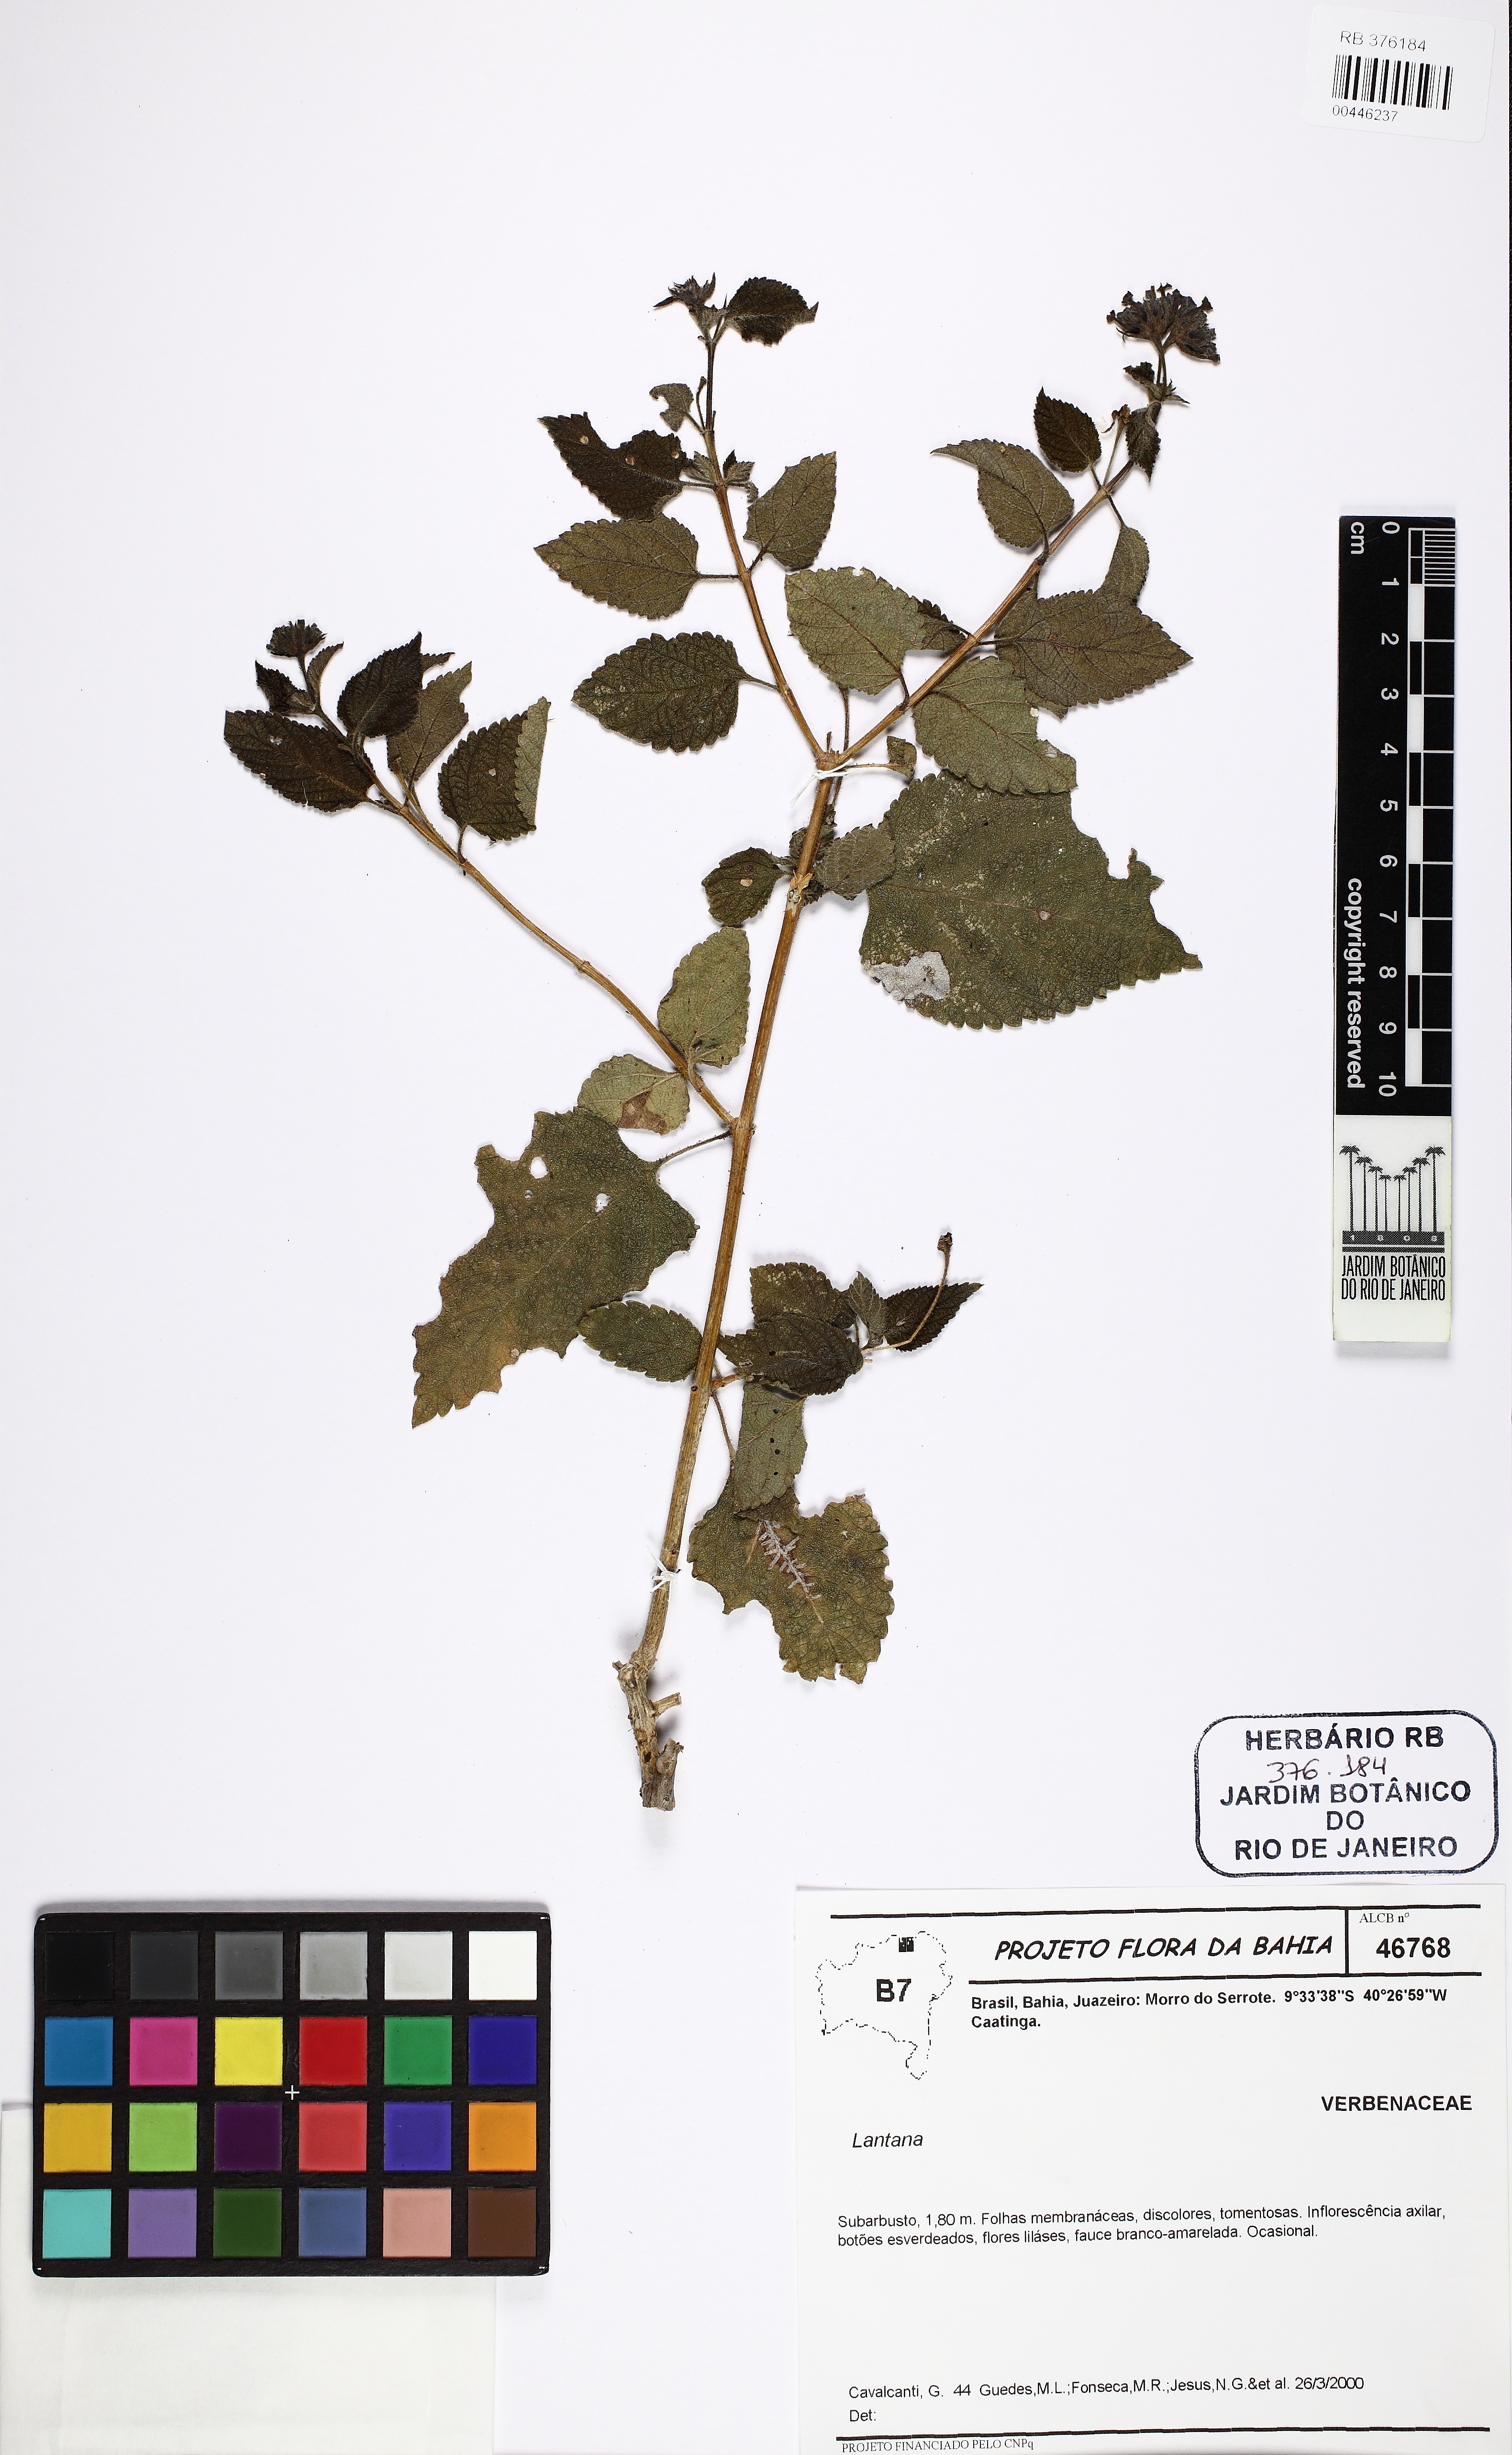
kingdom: Plantae
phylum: Tracheophyta
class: Magnoliopsida
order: Lamiales
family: Verbenaceae
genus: Lantana
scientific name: Lantana
